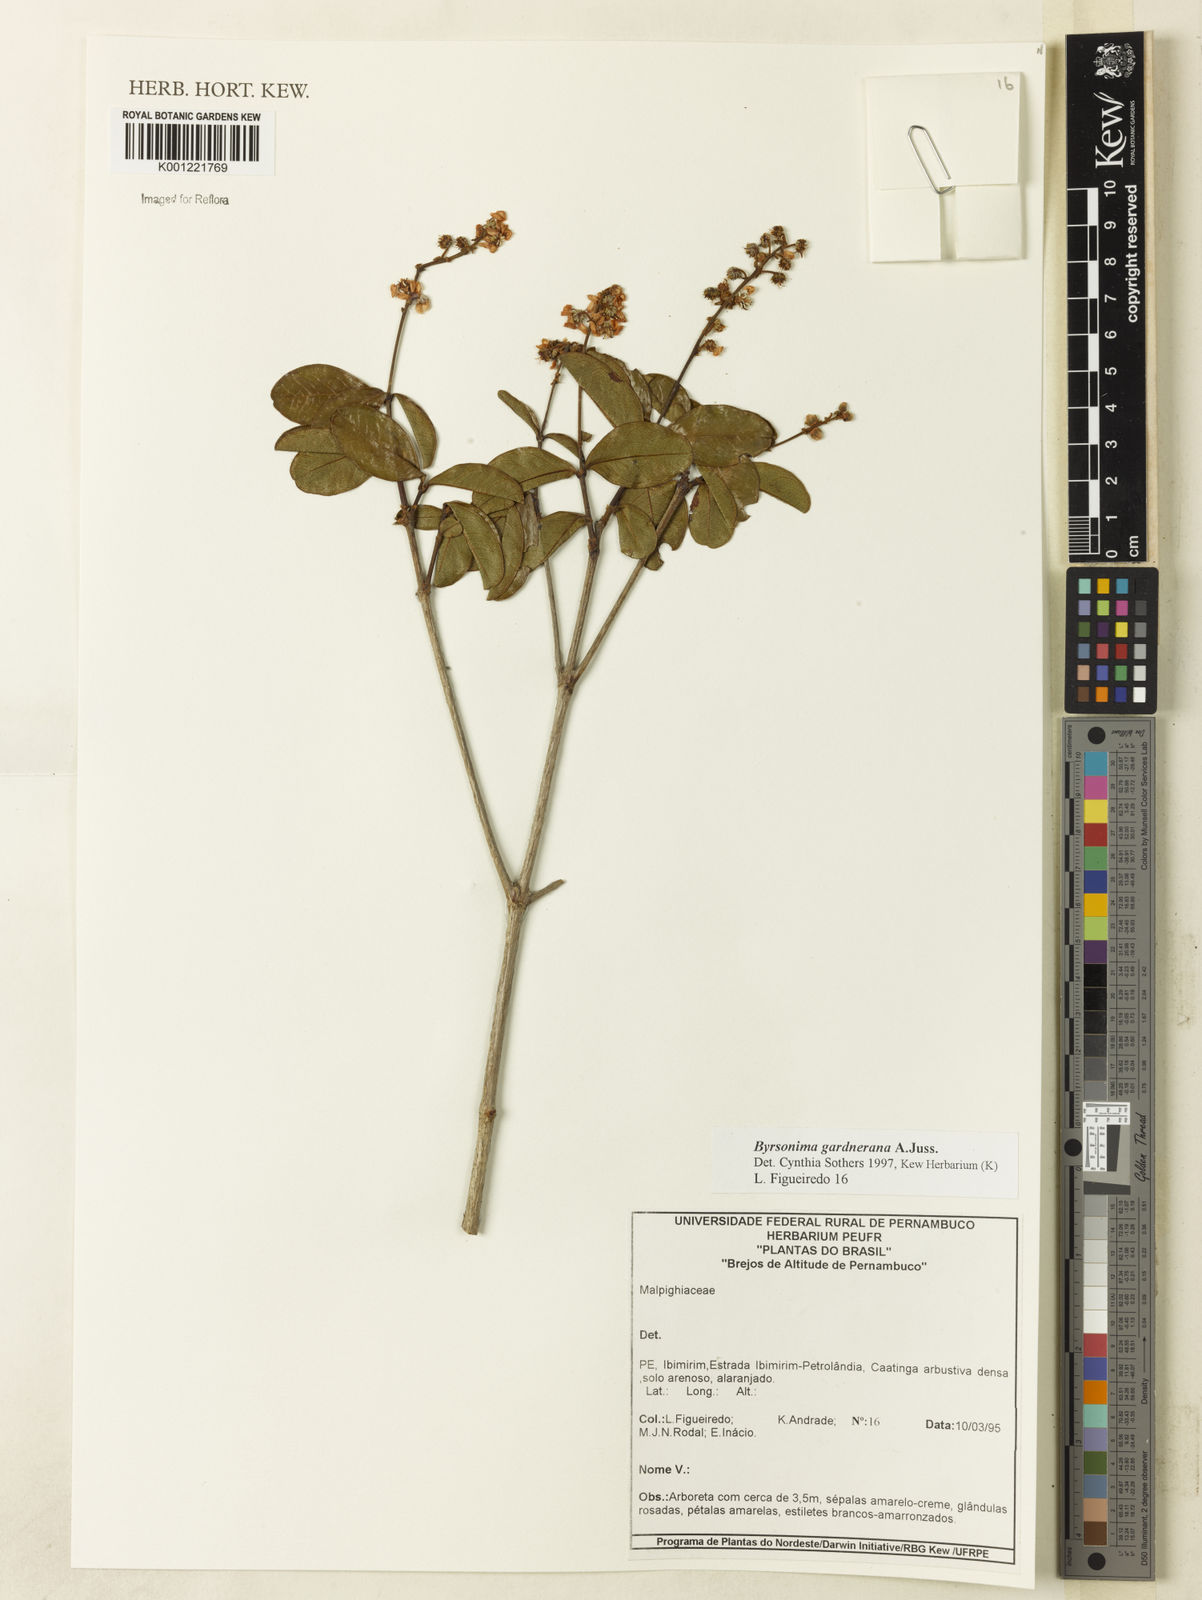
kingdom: Plantae
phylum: Tracheophyta
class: Magnoliopsida
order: Malpighiales
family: Malpighiaceae
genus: Byrsonima
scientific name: Byrsonima gardneriana
